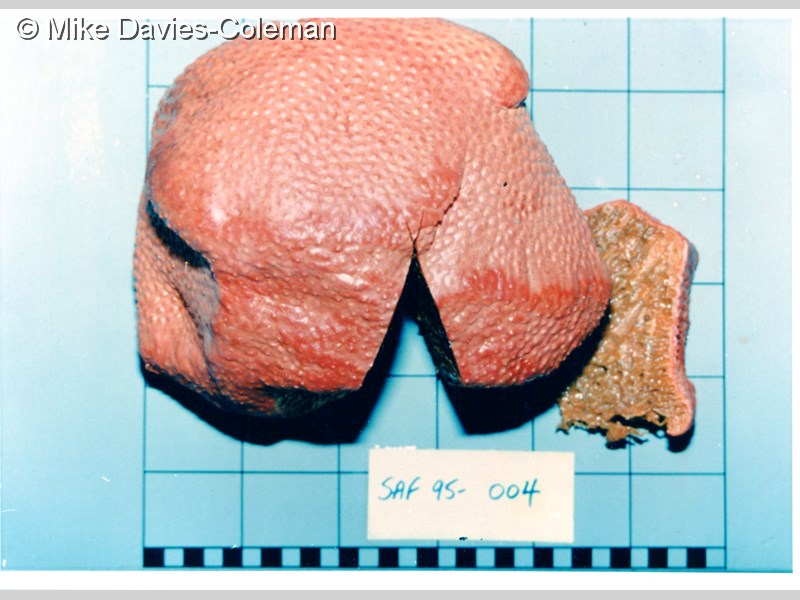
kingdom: Animalia
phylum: Porifera
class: Demospongiae
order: Clionaida
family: Clionaidae
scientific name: Clionaidae
